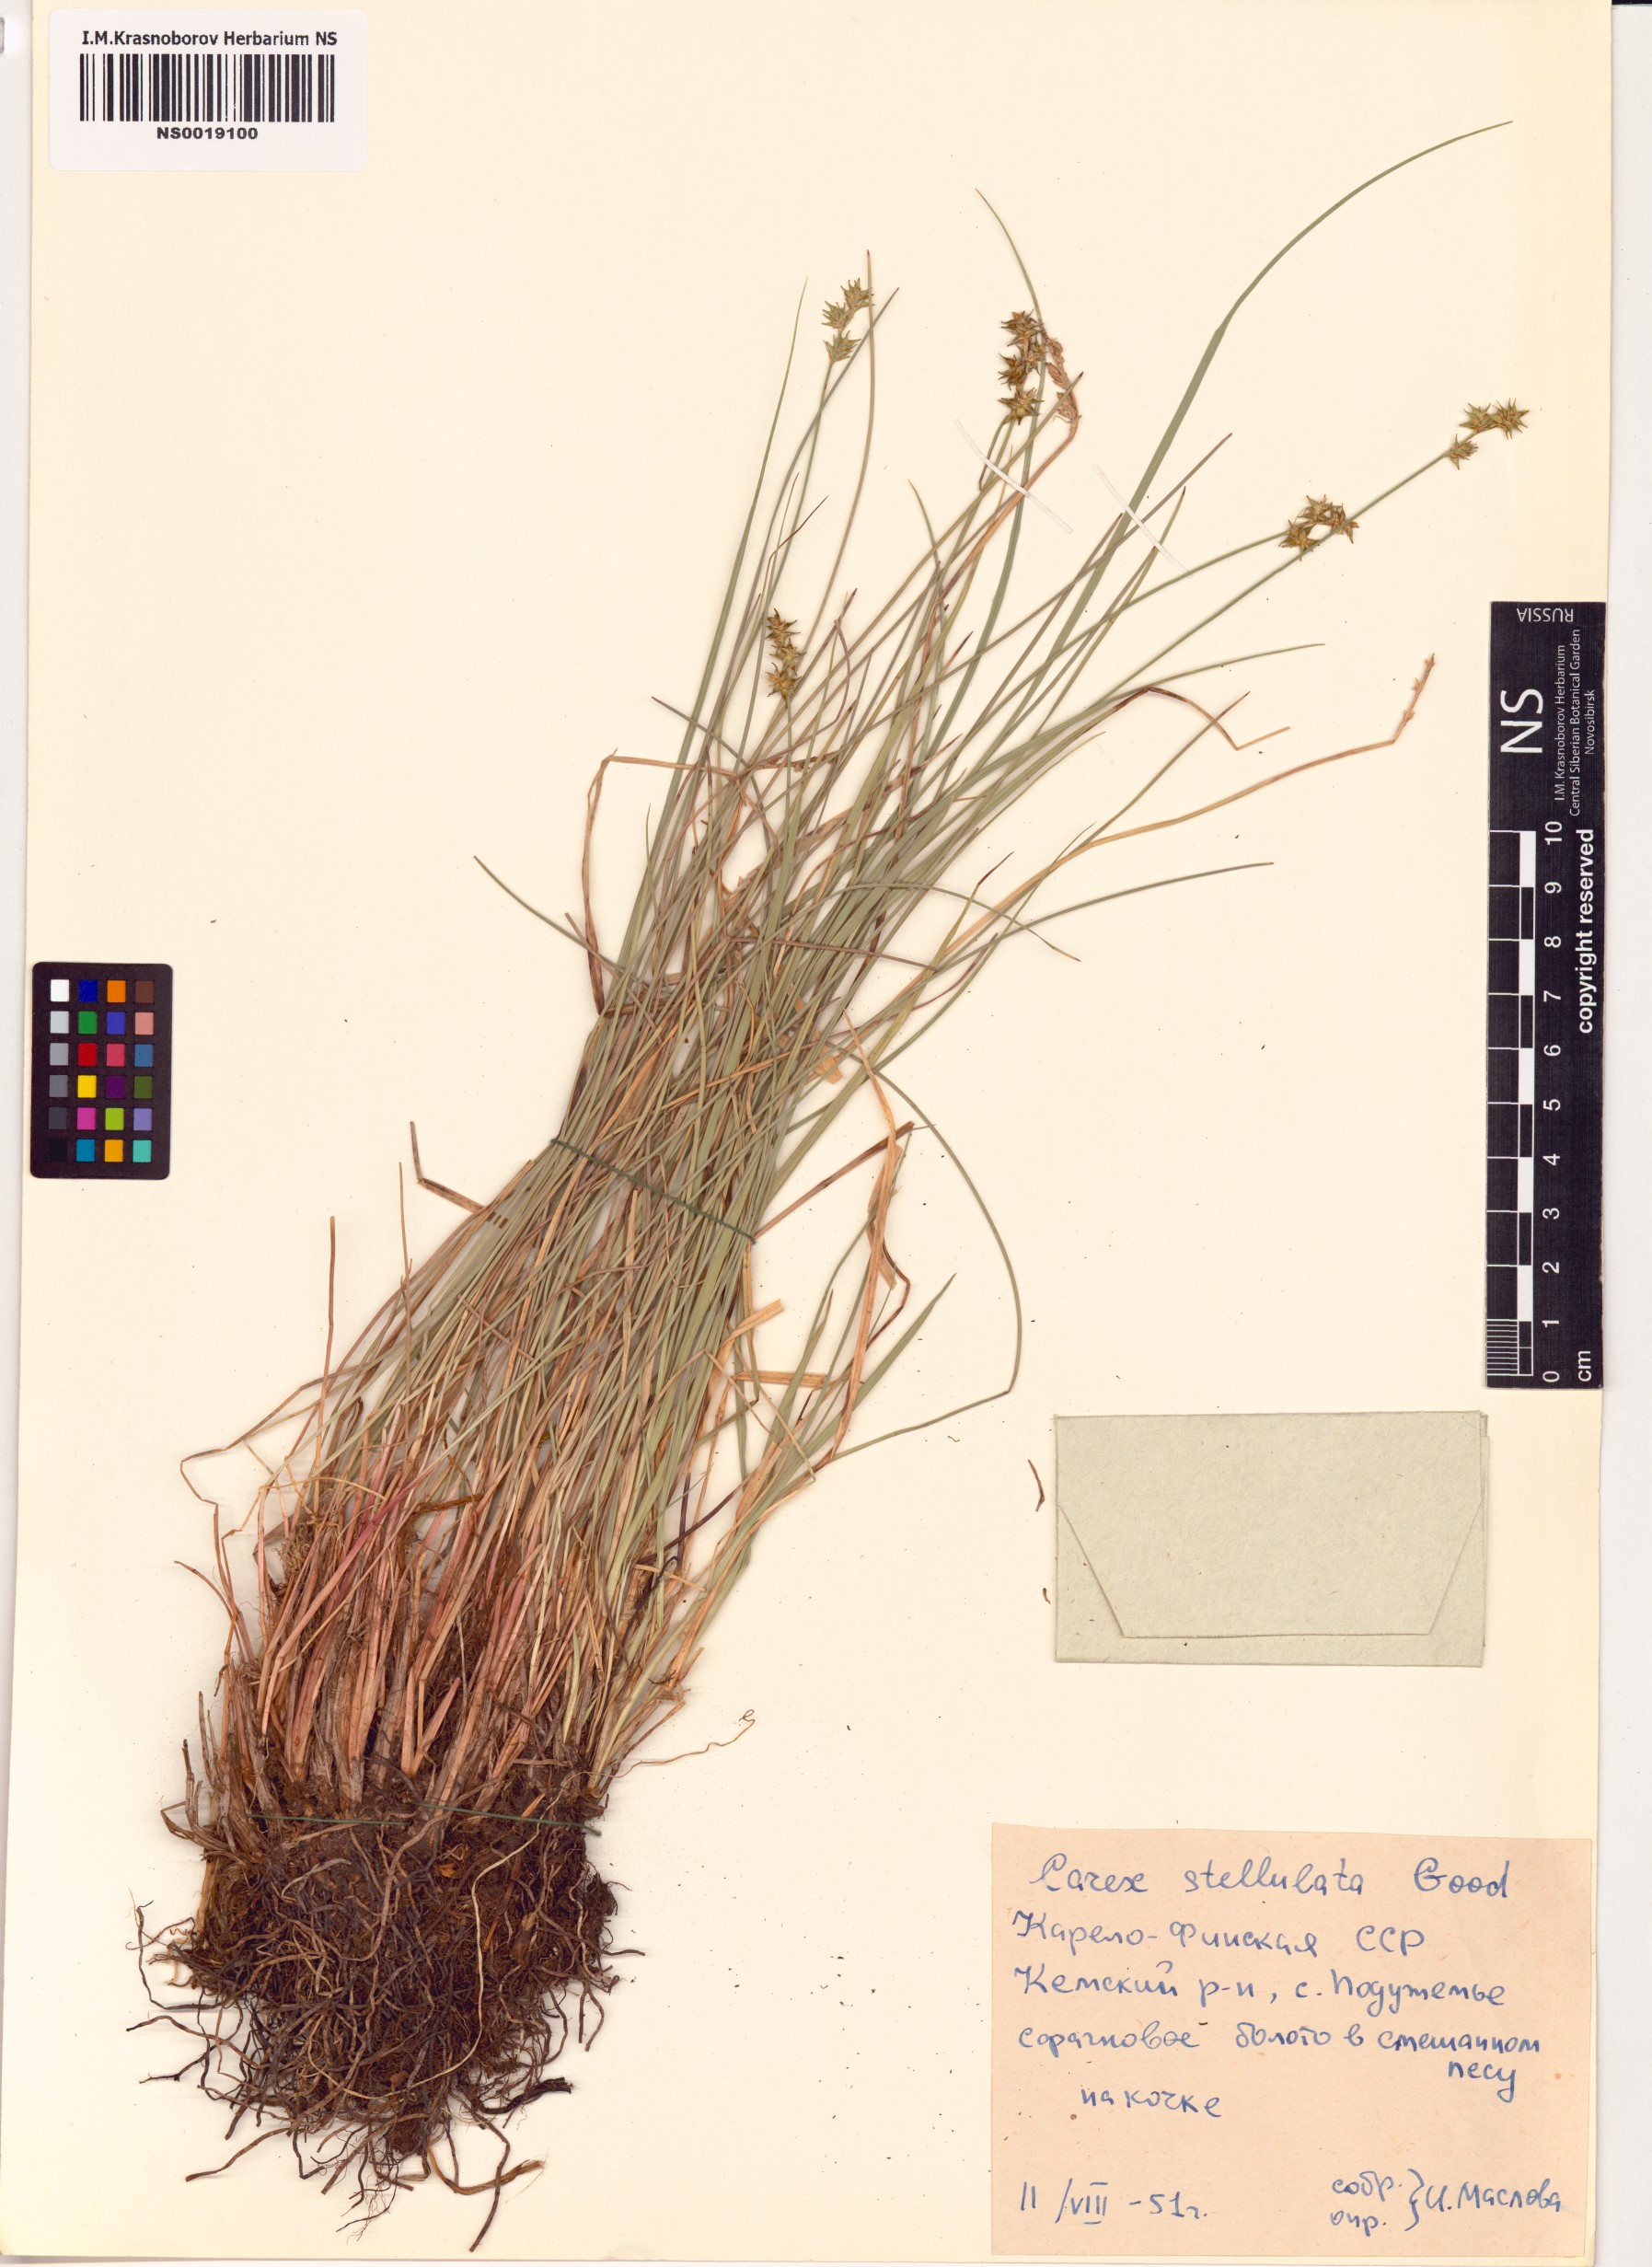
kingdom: Plantae
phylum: Tracheophyta
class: Liliopsida
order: Poales
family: Cyperaceae
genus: Carex
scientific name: Carex echinata
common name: Star sedge
